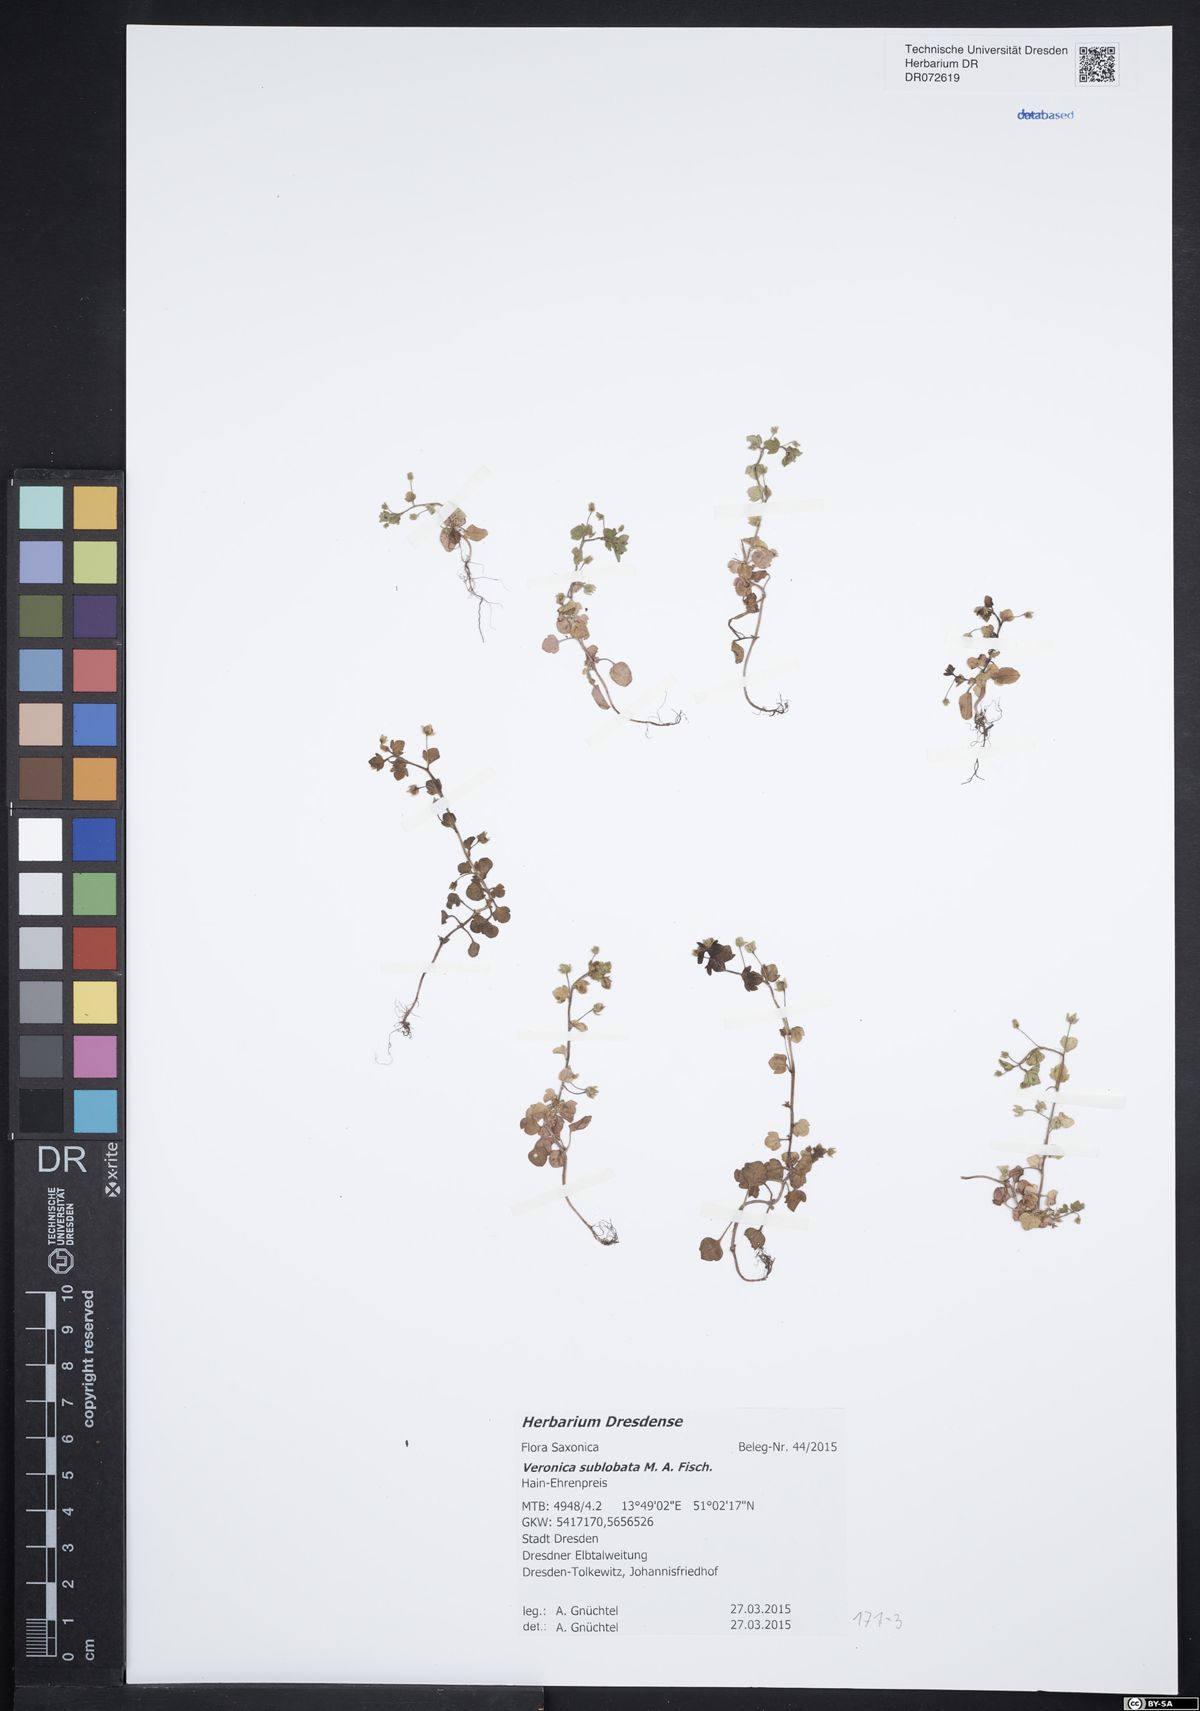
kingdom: Plantae
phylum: Tracheophyta
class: Magnoliopsida
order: Lamiales
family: Plantaginaceae
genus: Veronica
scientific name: Veronica sublobata
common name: False ivy-leaved speedwell
